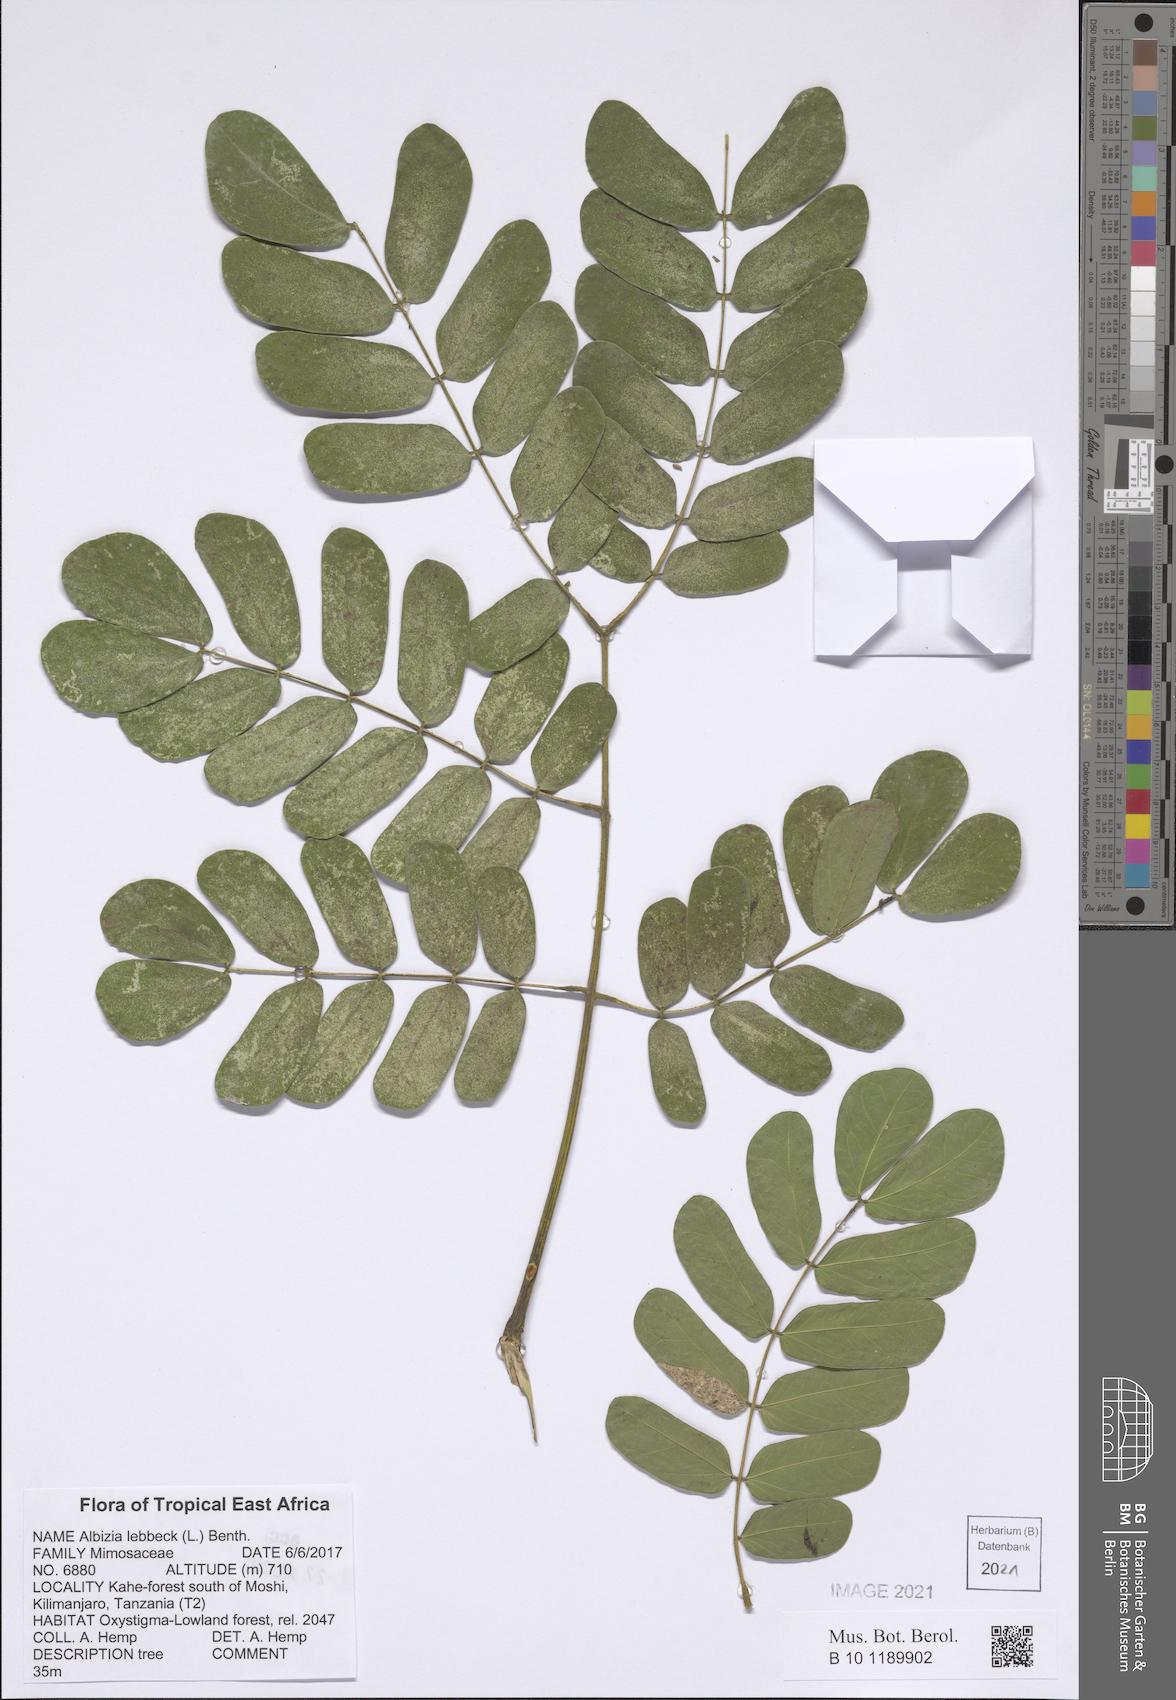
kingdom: Plantae
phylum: Tracheophyta
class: Magnoliopsida
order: Fabales
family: Fabaceae
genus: Albizia
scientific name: Albizia lebbeck
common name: Woman's tongue
